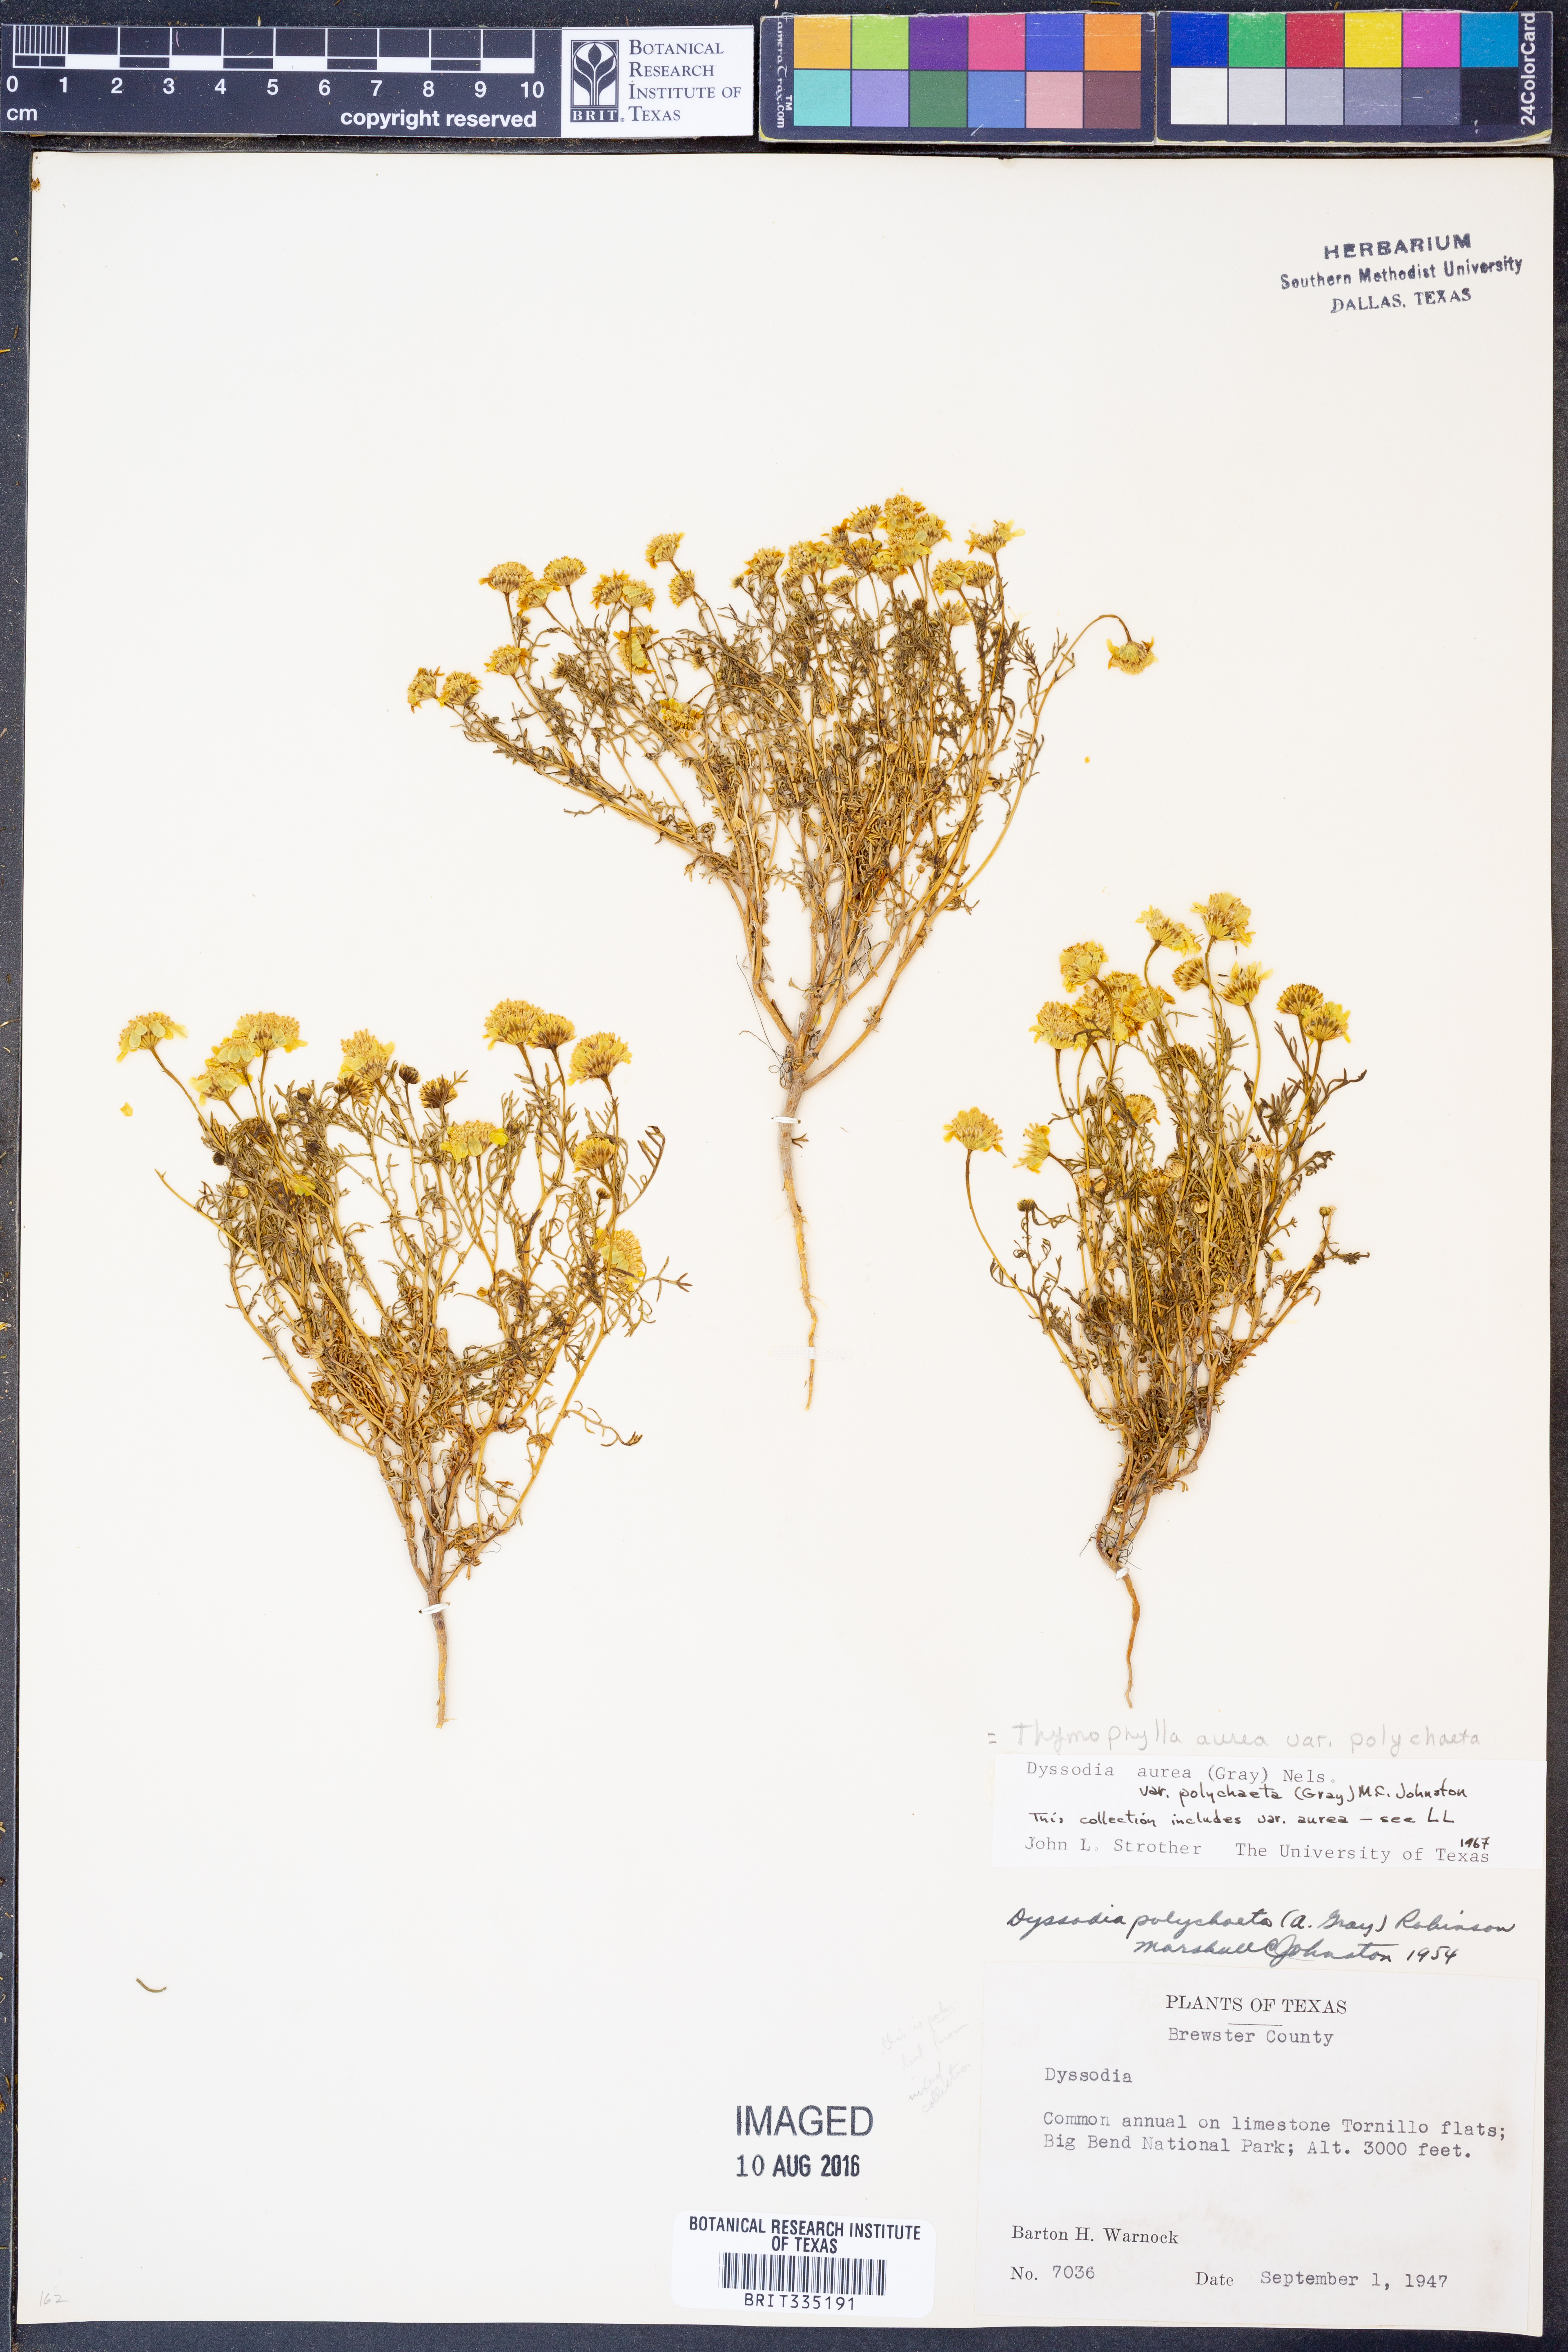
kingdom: Plantae
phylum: Tracheophyta
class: Magnoliopsida
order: Asterales
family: Asteraceae
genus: Thymophylla
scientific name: Thymophylla aurea
